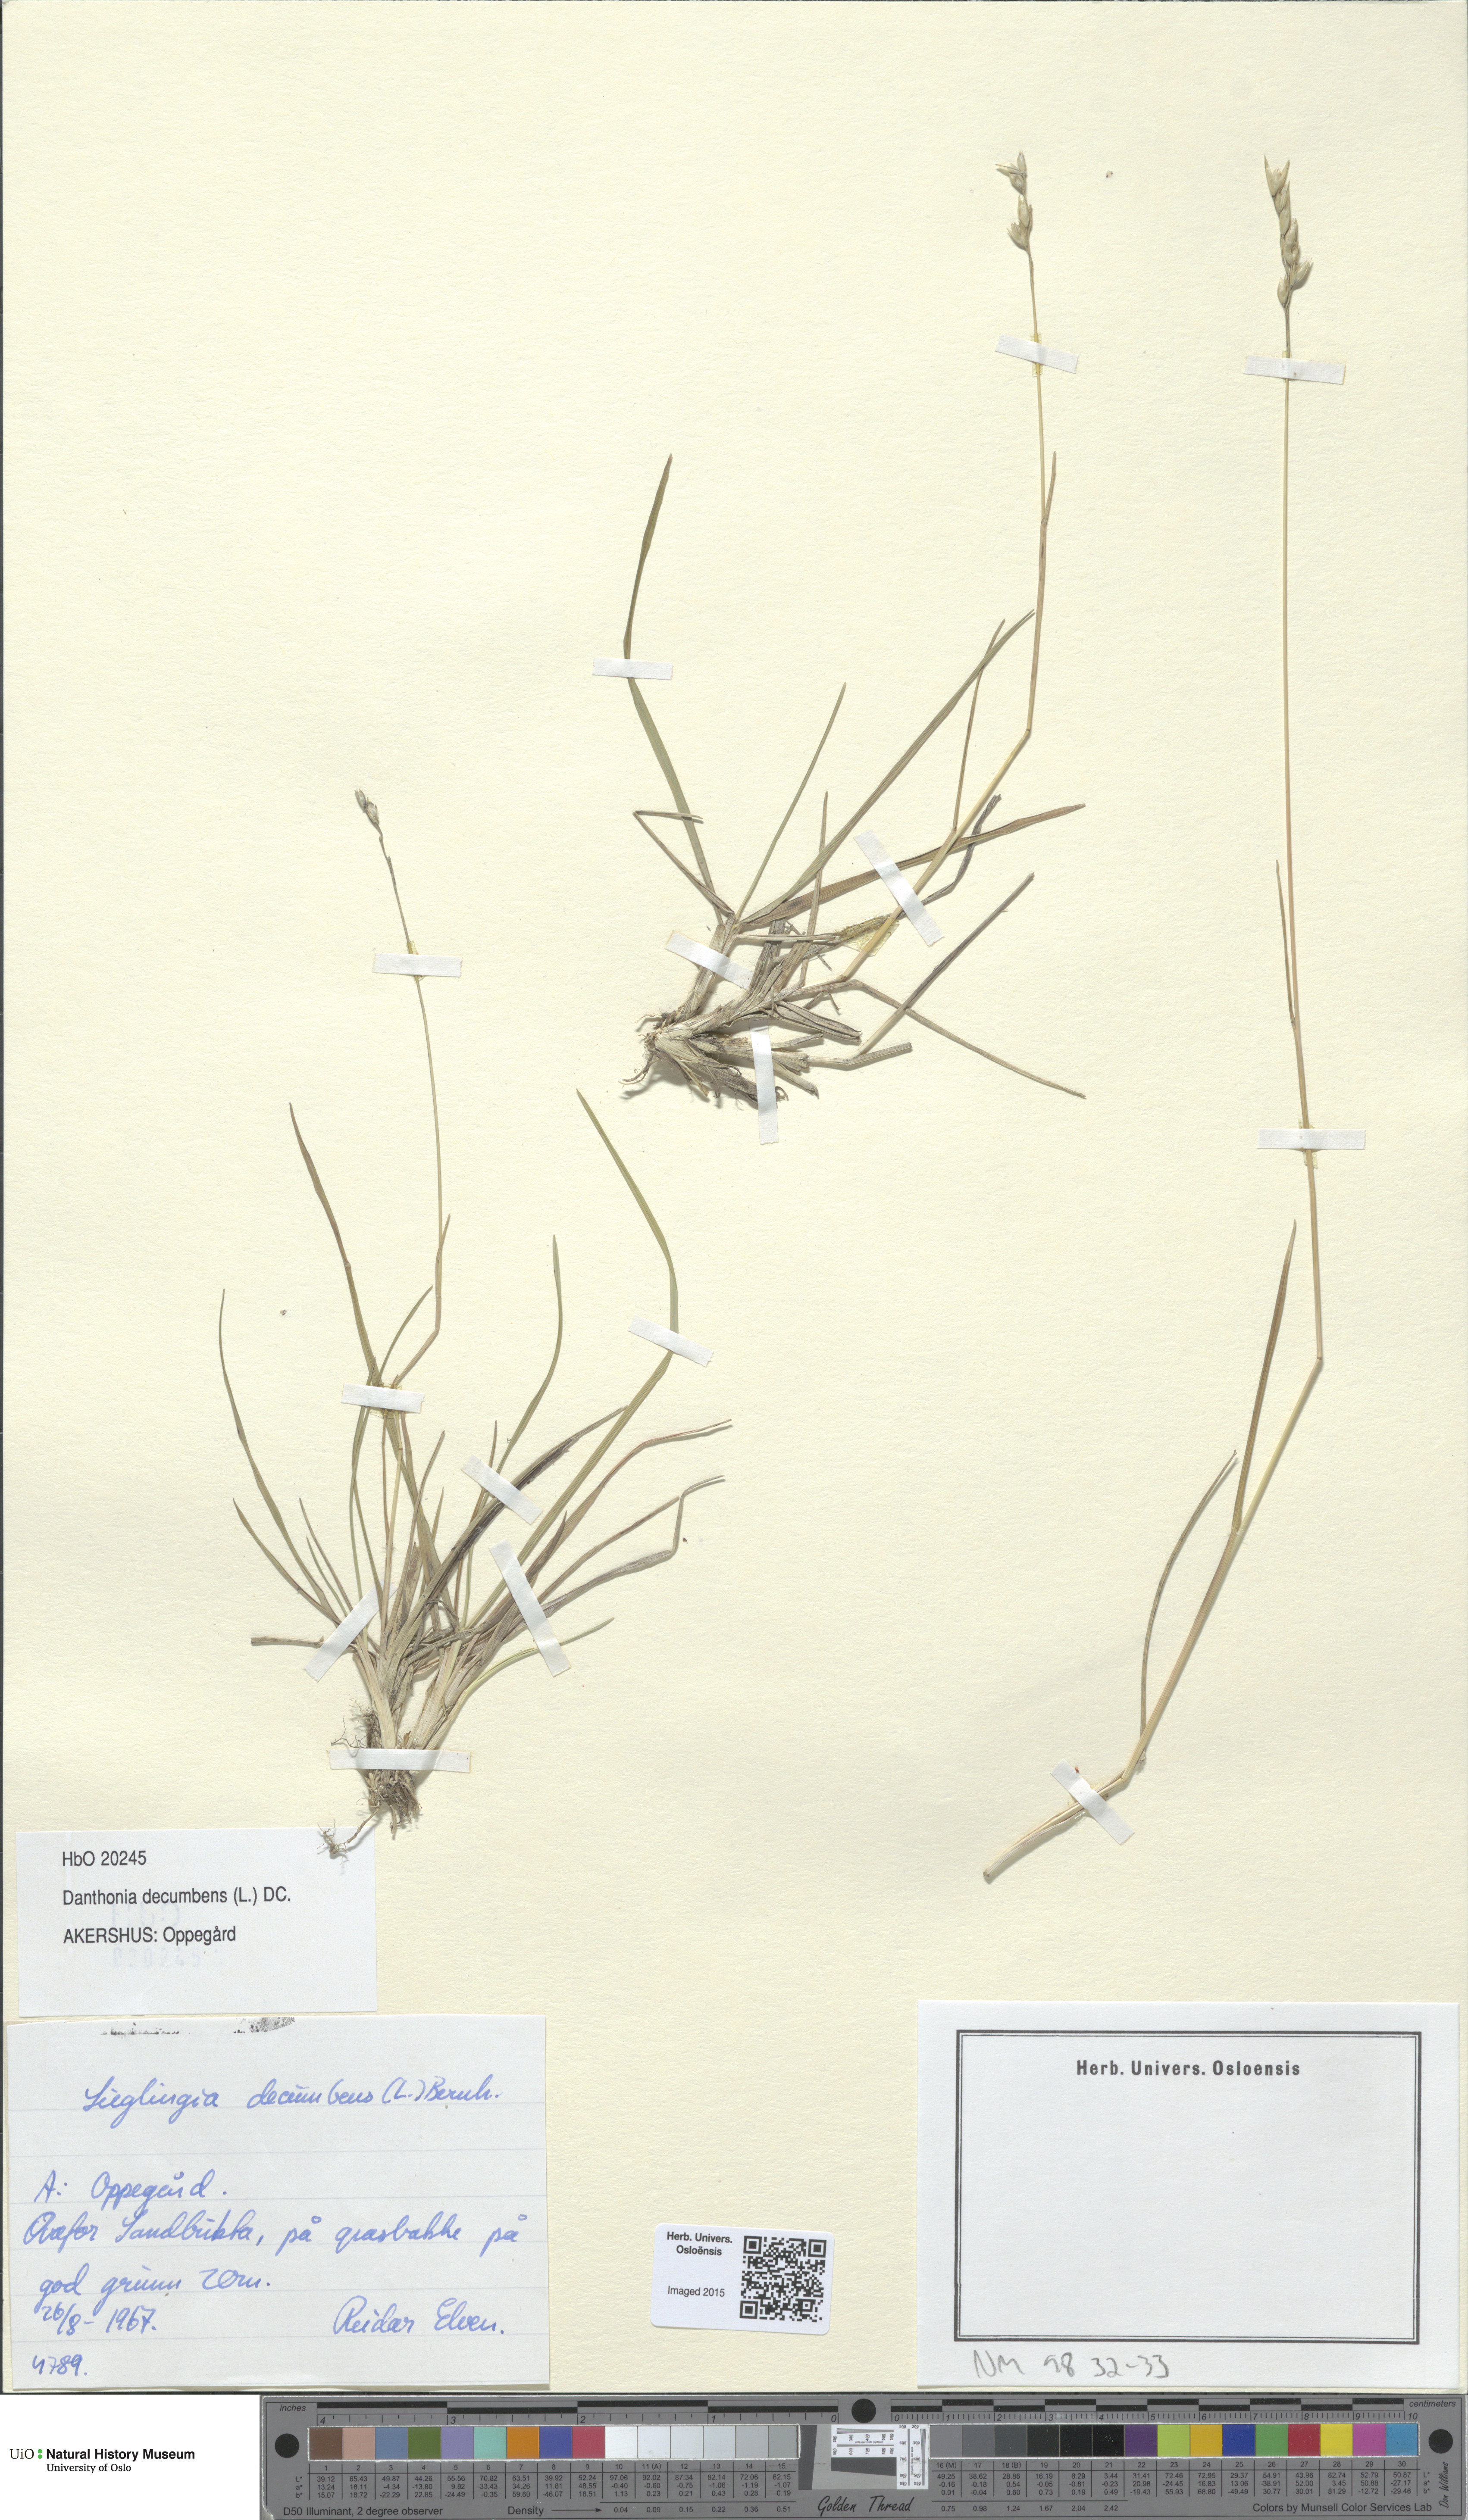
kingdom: Plantae
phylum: Tracheophyta
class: Liliopsida
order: Poales
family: Poaceae
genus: Danthonia
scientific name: Danthonia decumbens
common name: Common heathgrass
